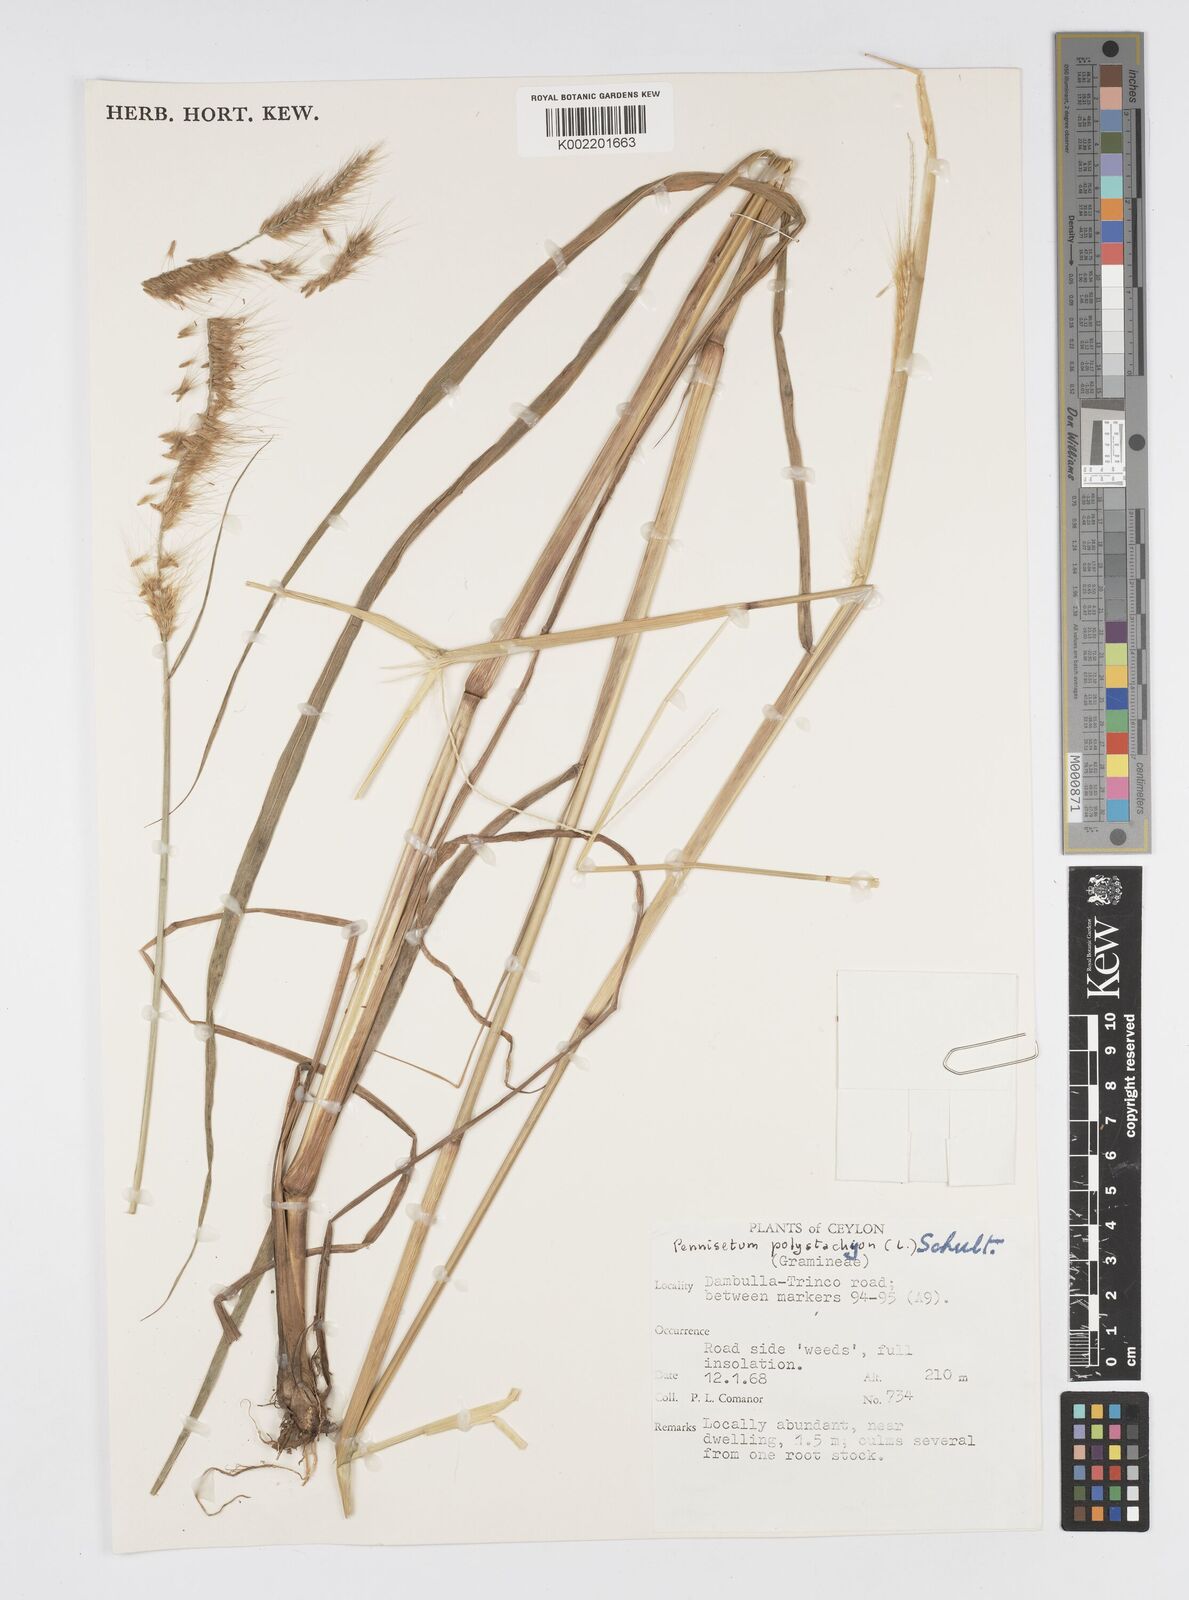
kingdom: Plantae
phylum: Tracheophyta
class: Liliopsida
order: Poales
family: Poaceae
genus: Setaria
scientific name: Setaria parviflora
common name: Knotroot bristle-grass
